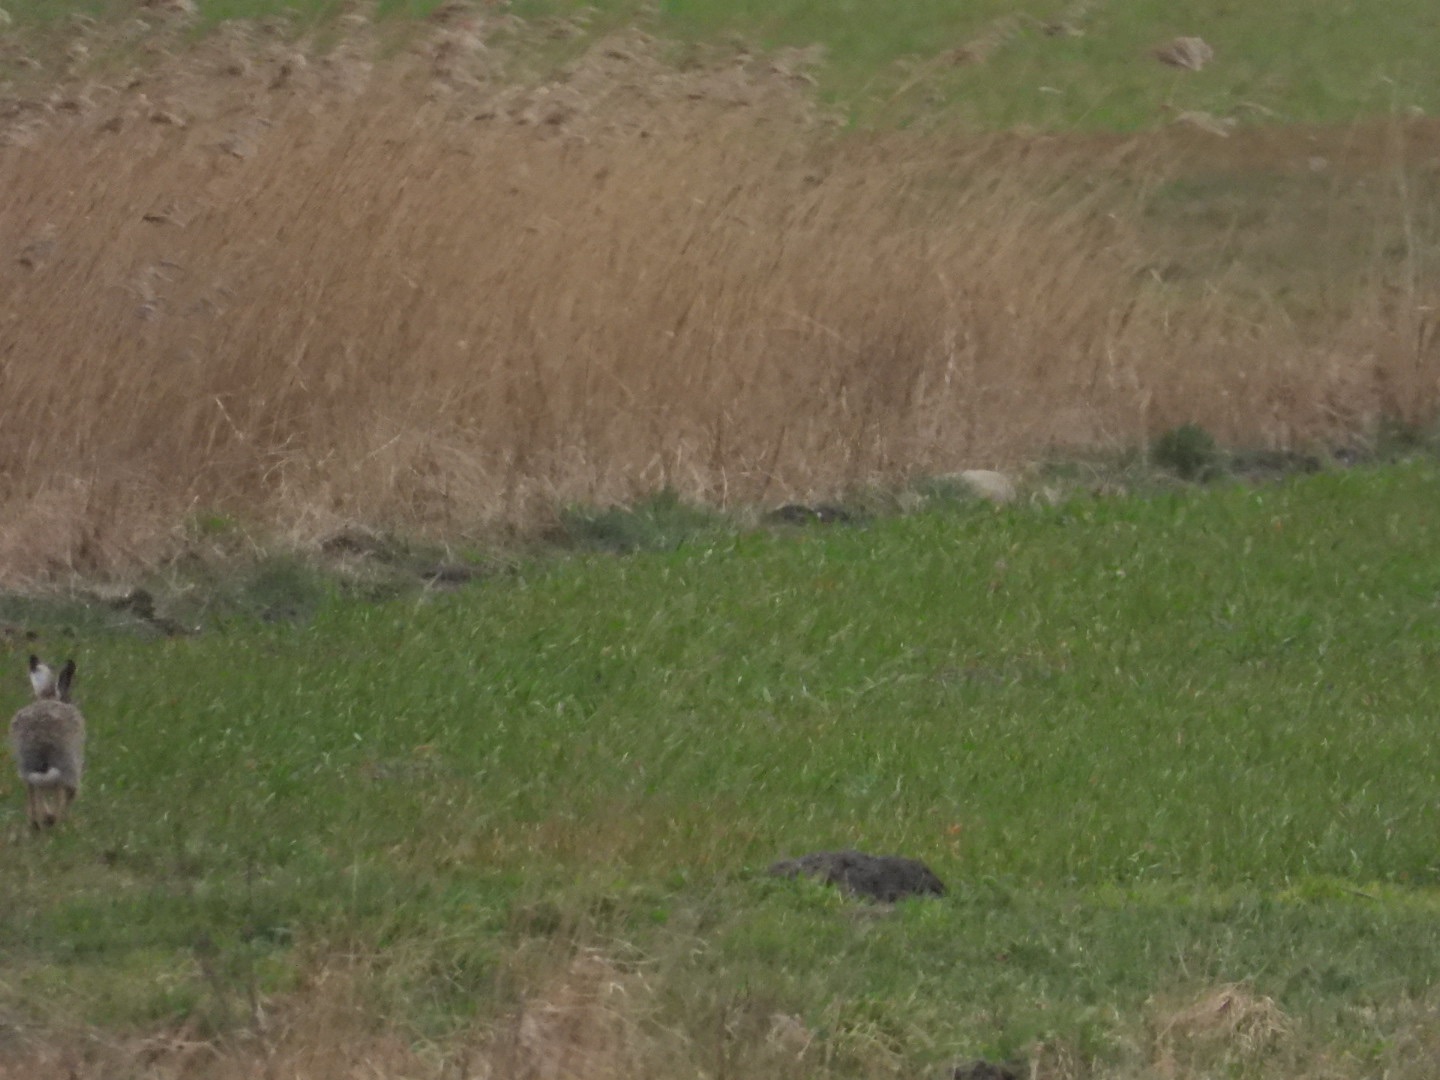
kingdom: Animalia
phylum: Chordata
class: Mammalia
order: Lagomorpha
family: Leporidae
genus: Lepus
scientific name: Lepus europaeus
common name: Hare
